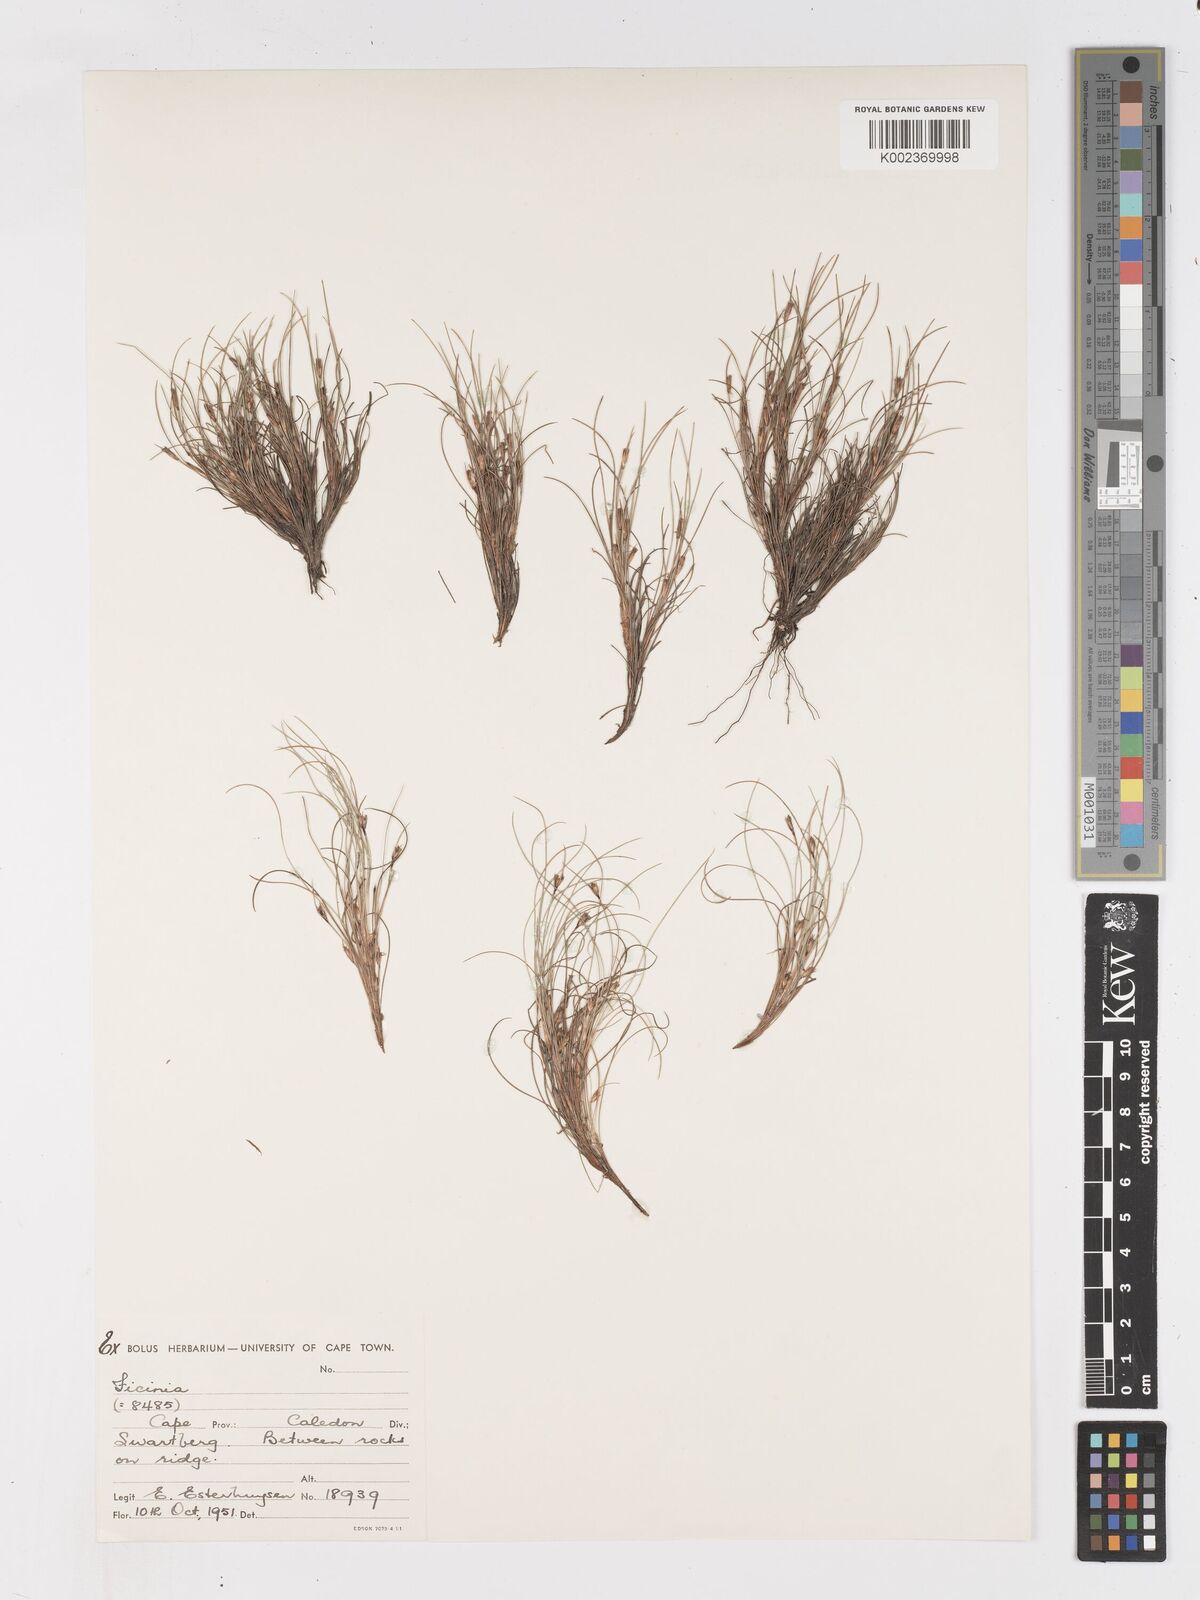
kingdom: Plantae
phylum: Tracheophyta
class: Liliopsida
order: Poales
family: Cyperaceae
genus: Ficinia
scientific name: Ficinia zeyheri
